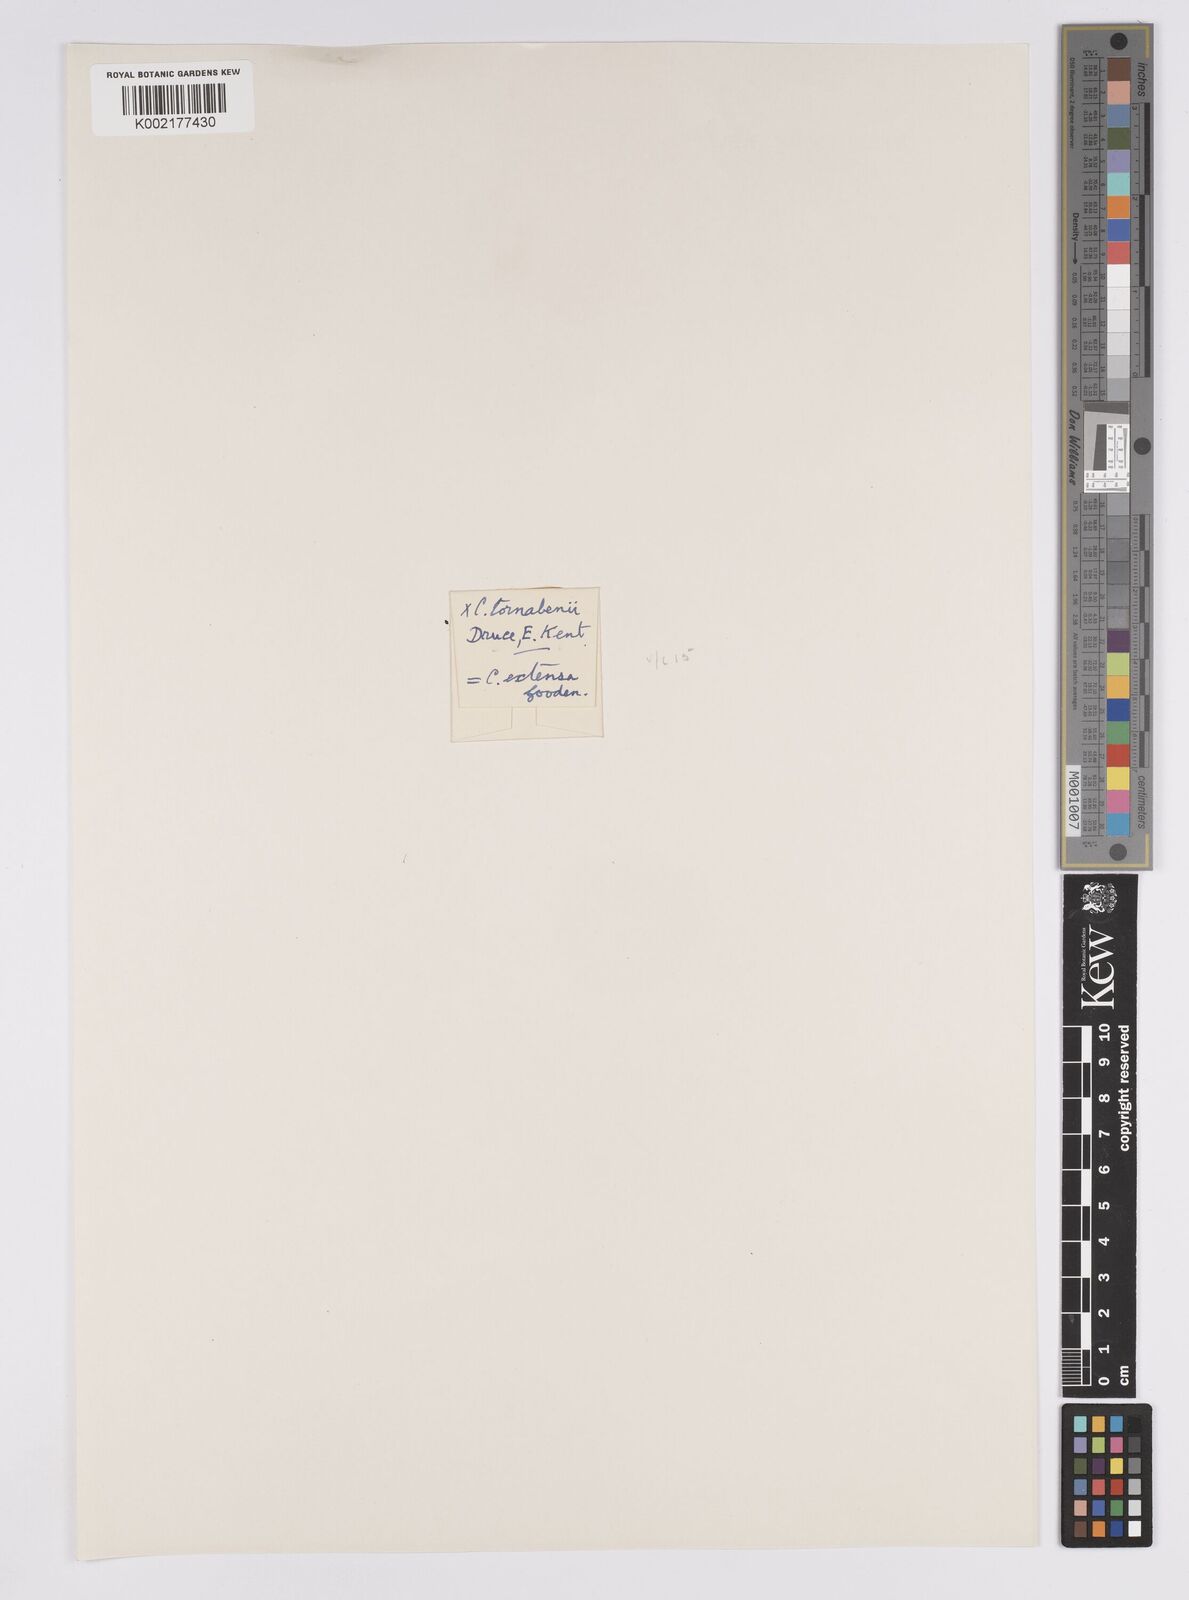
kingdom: Plantae
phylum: Tracheophyta
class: Liliopsida
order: Poales
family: Cyperaceae
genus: Carex
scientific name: Carex extensa
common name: Long-bracted sedge
